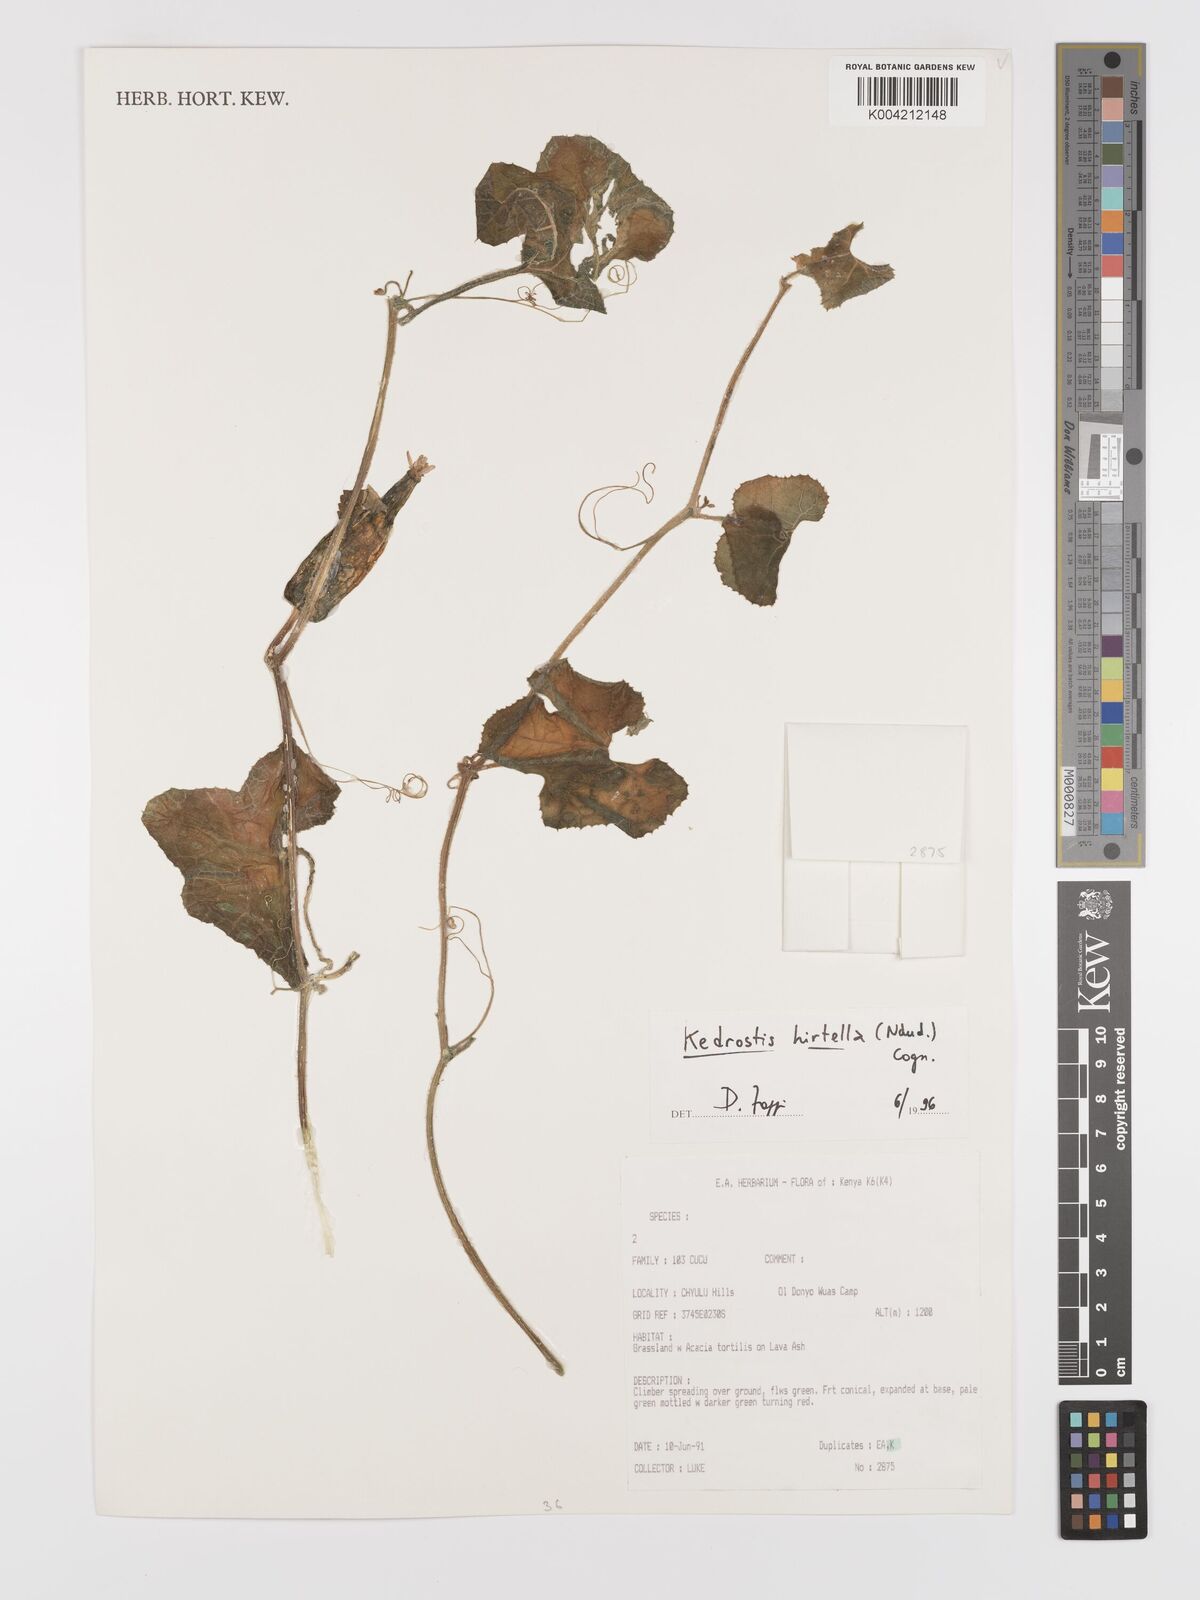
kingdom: Plantae
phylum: Tracheophyta
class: Magnoliopsida
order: Cucurbitales
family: Cucurbitaceae
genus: Kedrostis
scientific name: Kedrostis leloja
